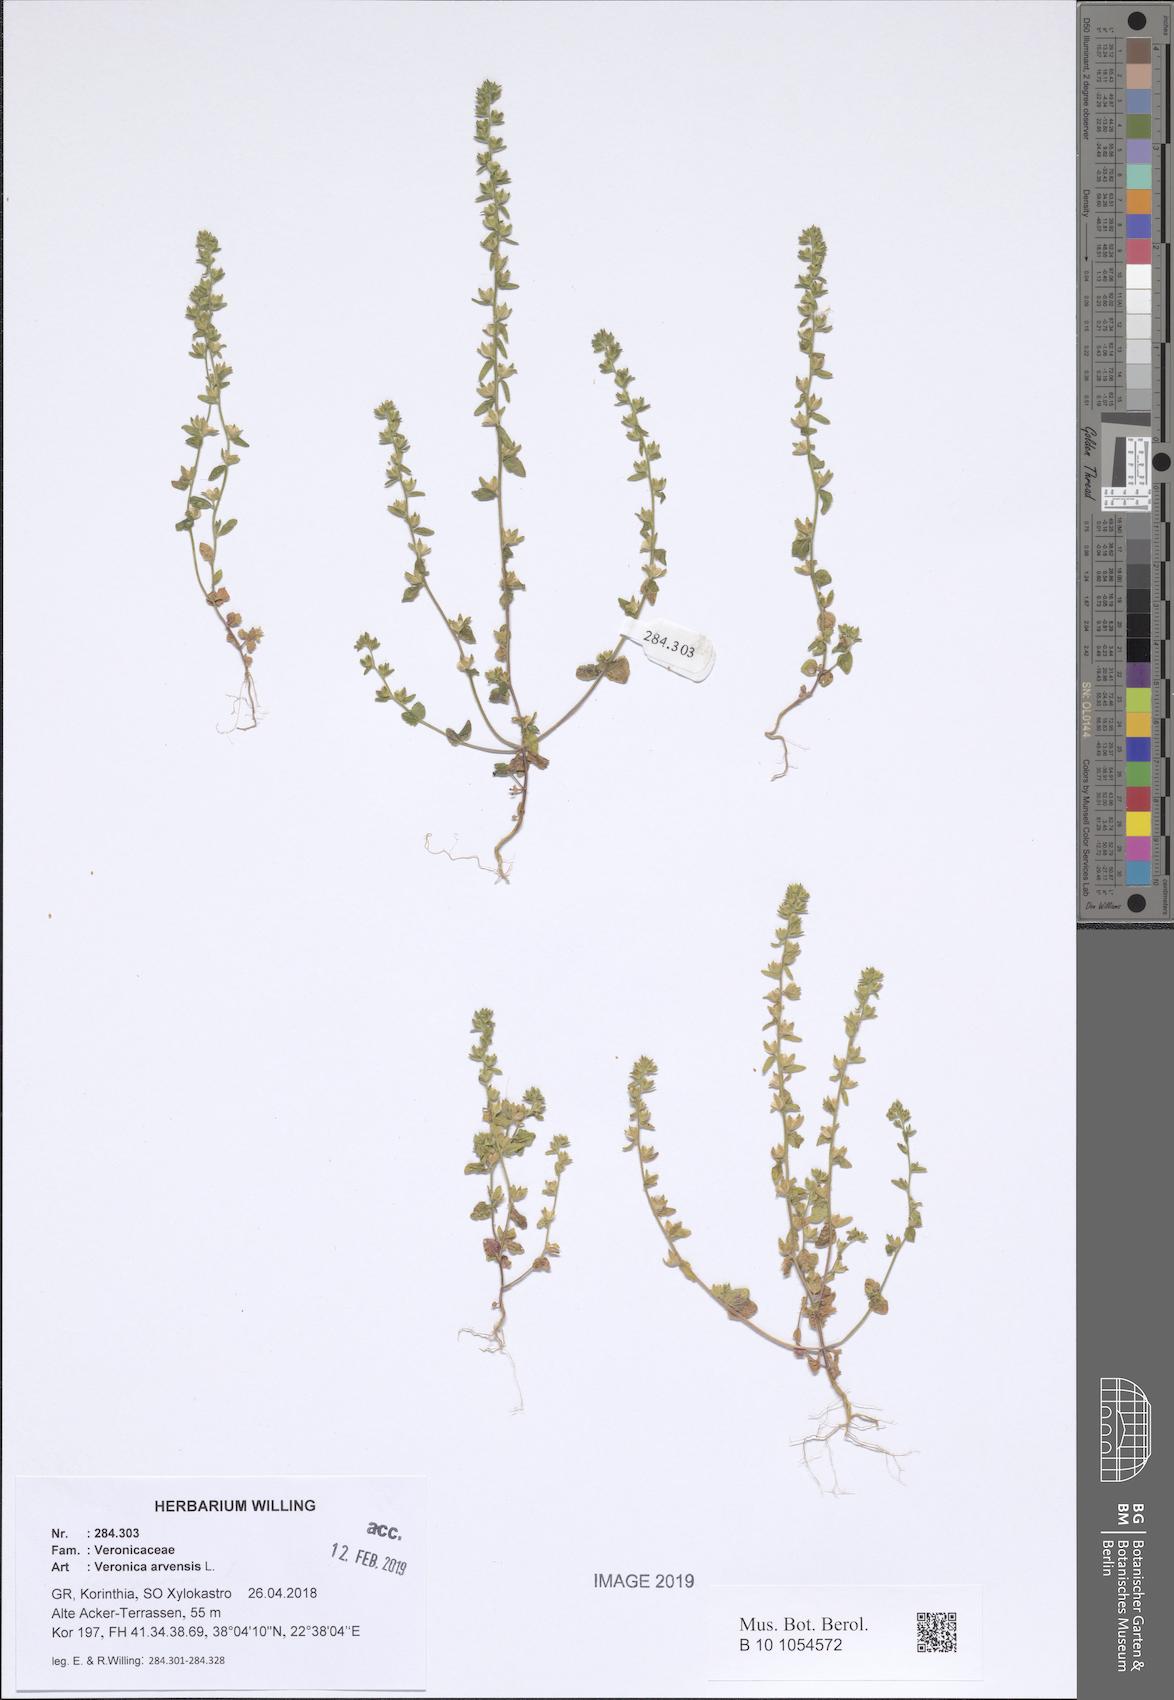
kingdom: Plantae
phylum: Tracheophyta
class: Magnoliopsida
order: Lamiales
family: Plantaginaceae
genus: Veronica
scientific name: Veronica arvensis
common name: Corn speedwell
